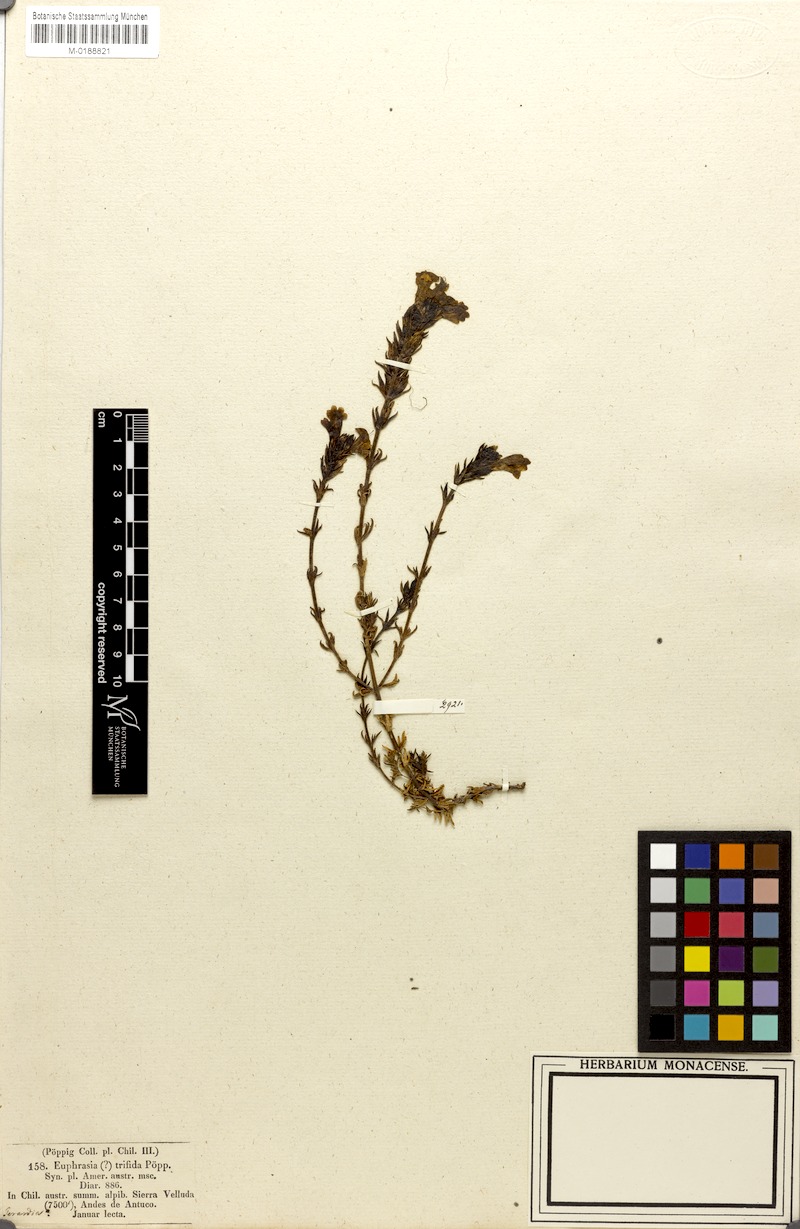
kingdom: Plantae
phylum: Tracheophyta
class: Magnoliopsida
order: Lamiales
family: Orobanchaceae
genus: Euphrasia
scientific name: Euphrasia trifida
